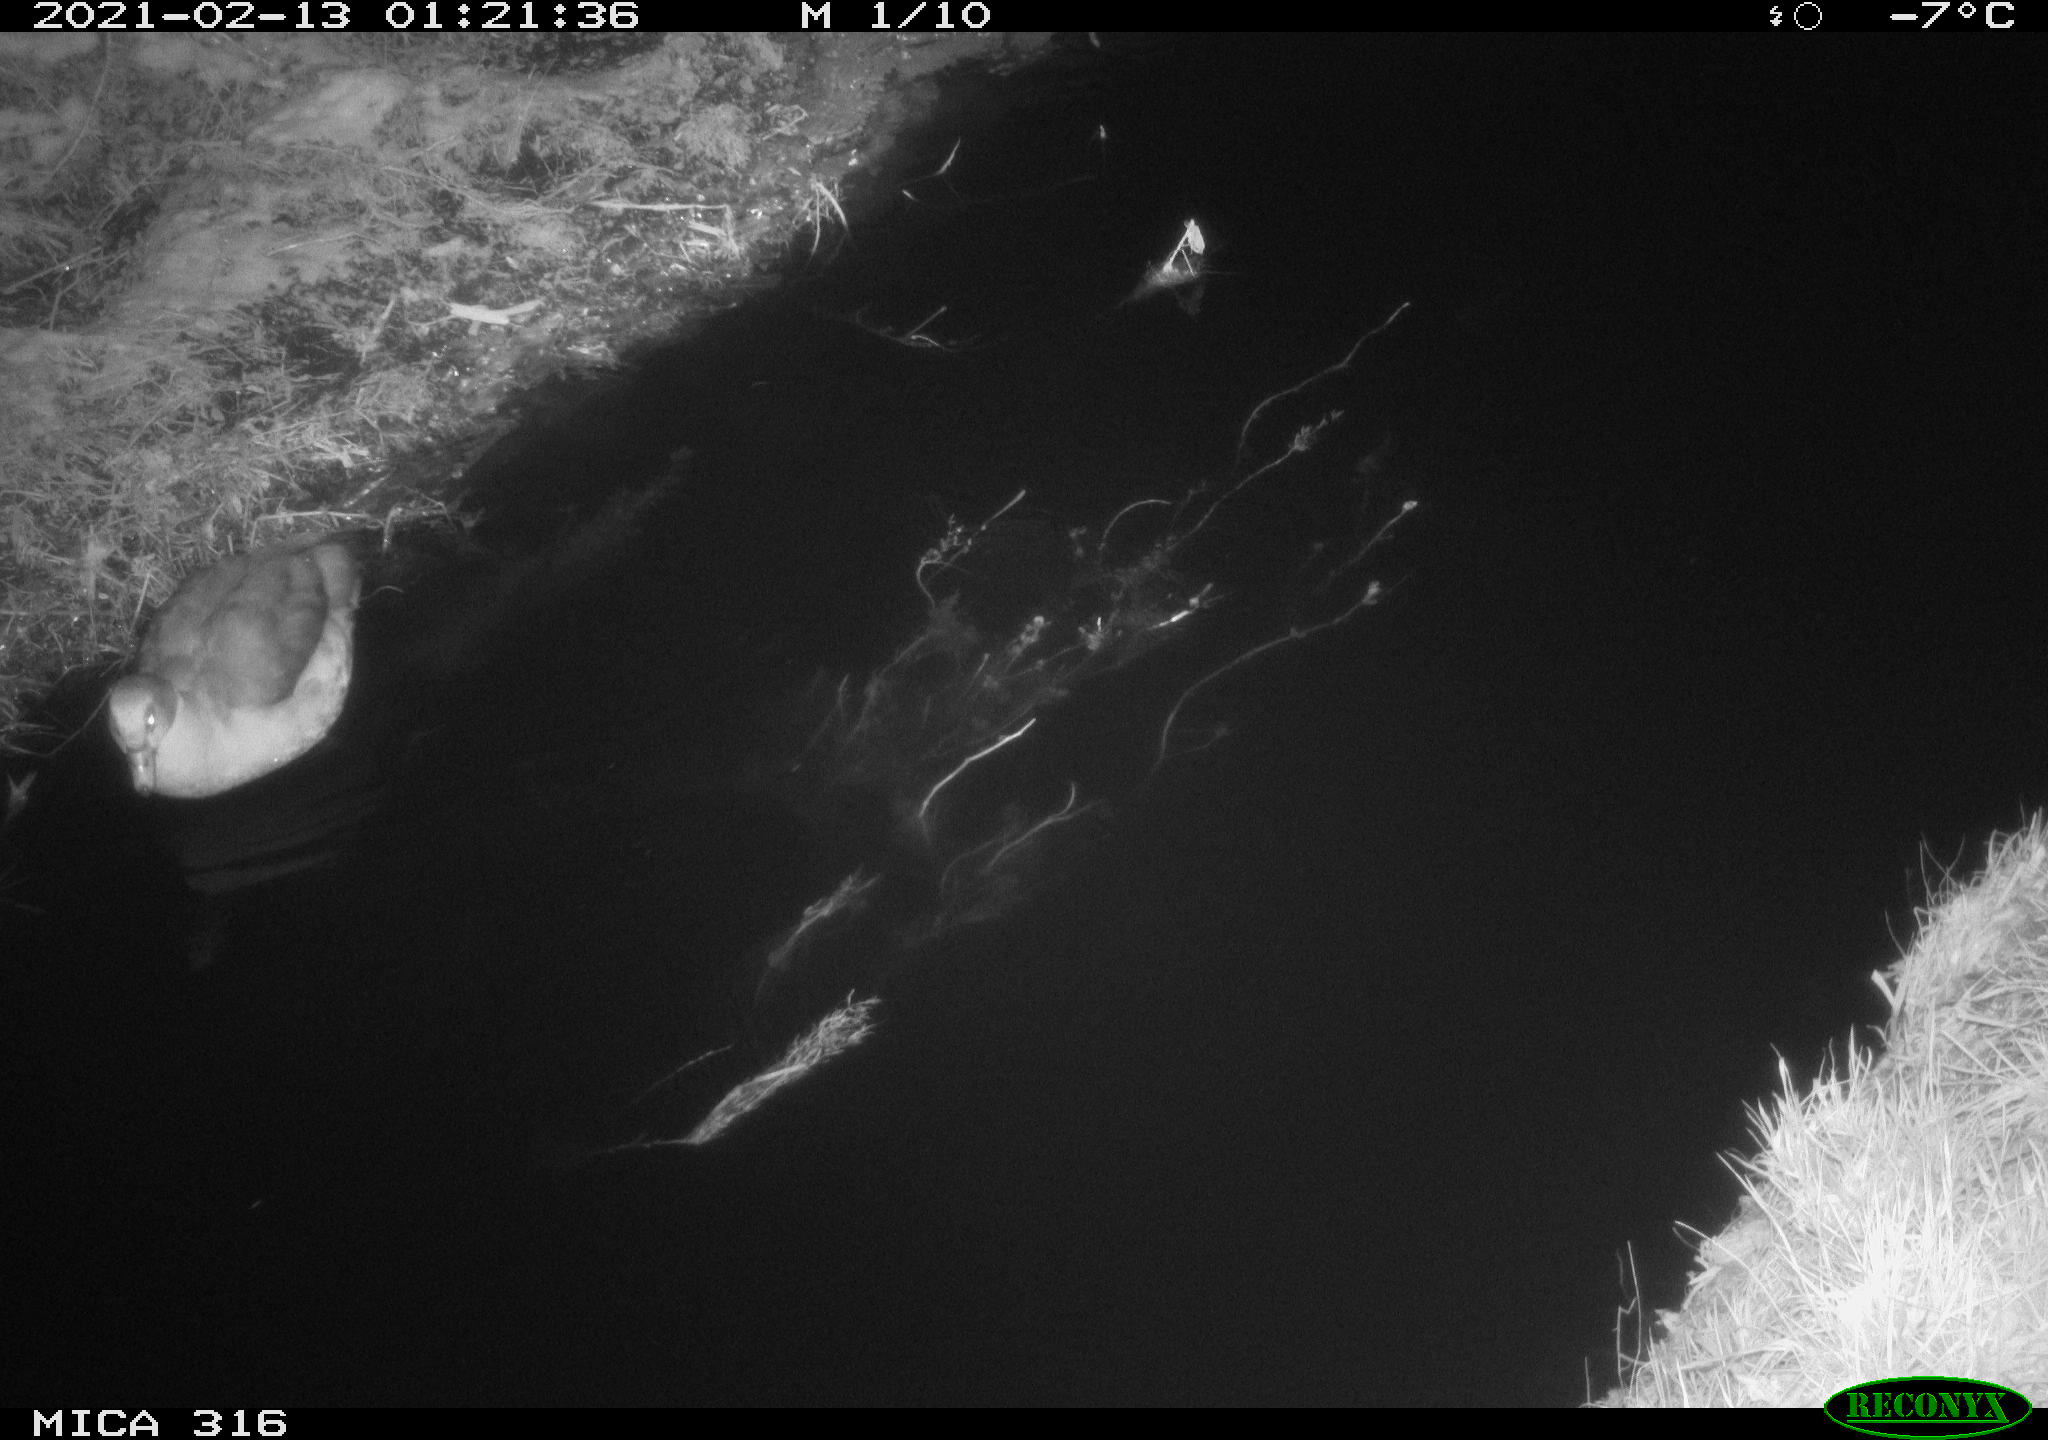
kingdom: Animalia
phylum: Chordata
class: Aves
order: Gruiformes
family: Rallidae
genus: Gallinula
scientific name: Gallinula chloropus
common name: Common moorhen
